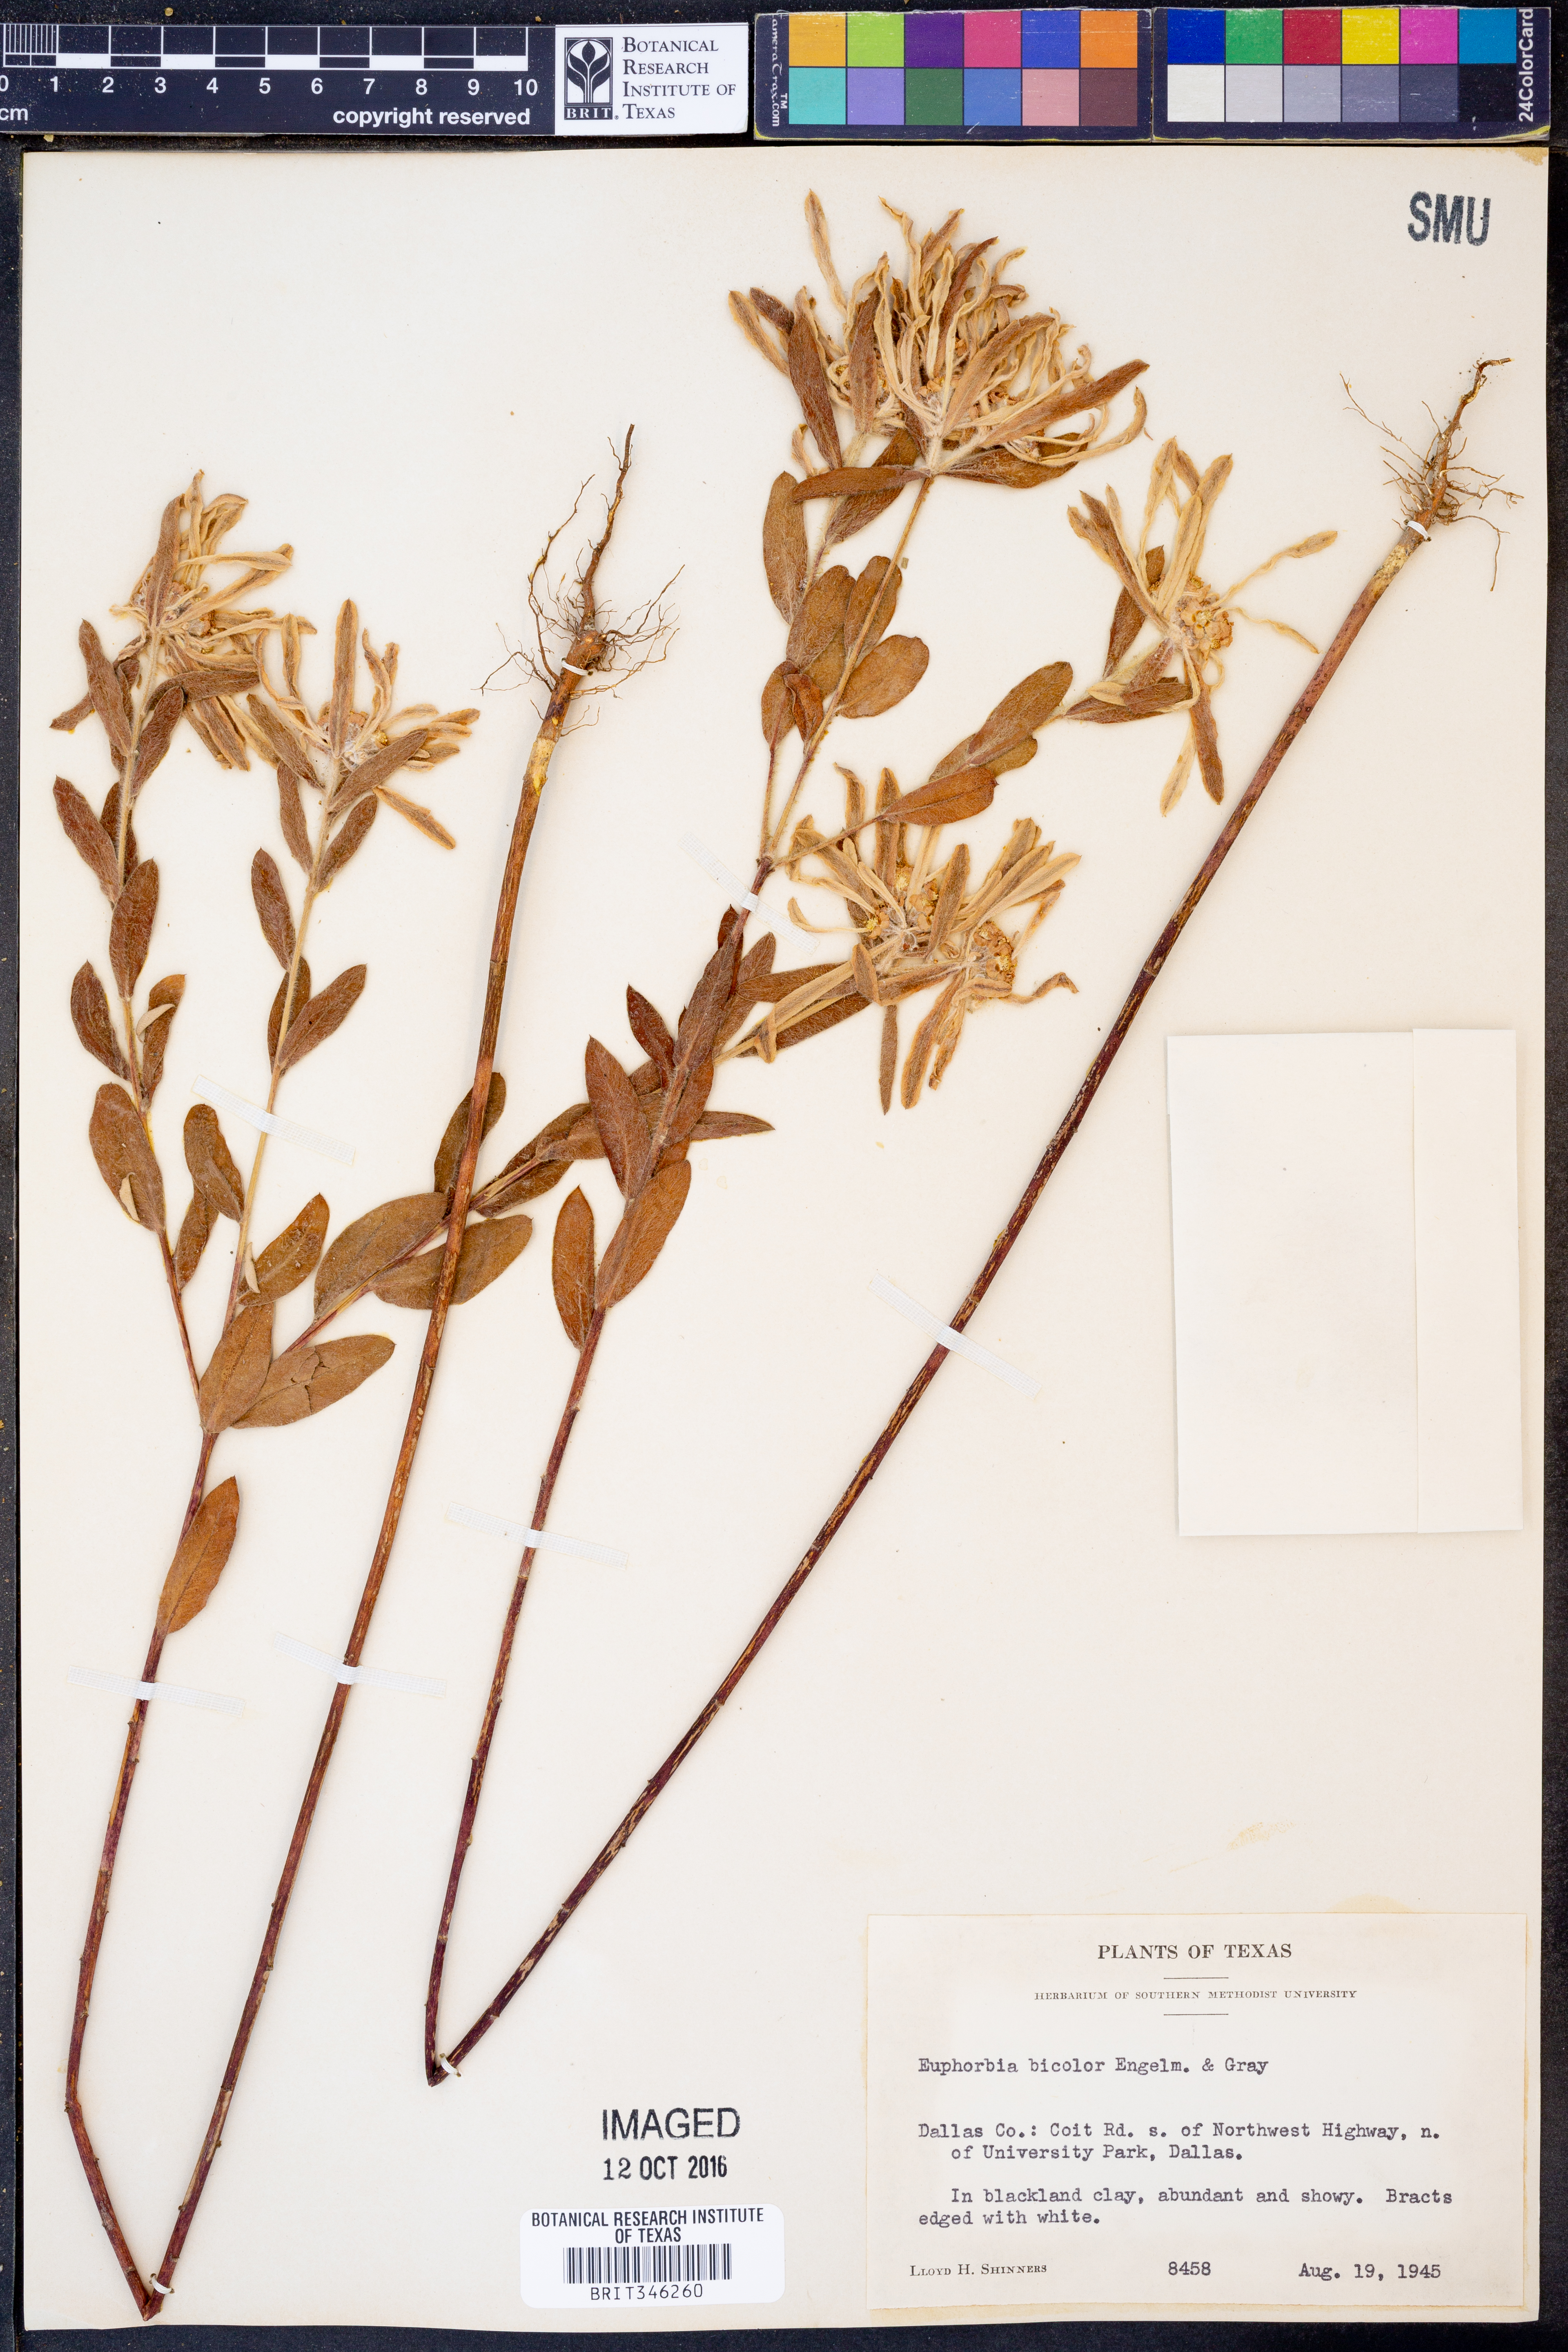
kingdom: Plantae
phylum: Tracheophyta
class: Magnoliopsida
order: Malpighiales
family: Euphorbiaceae
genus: Euphorbia
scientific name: Euphorbia bicolor
